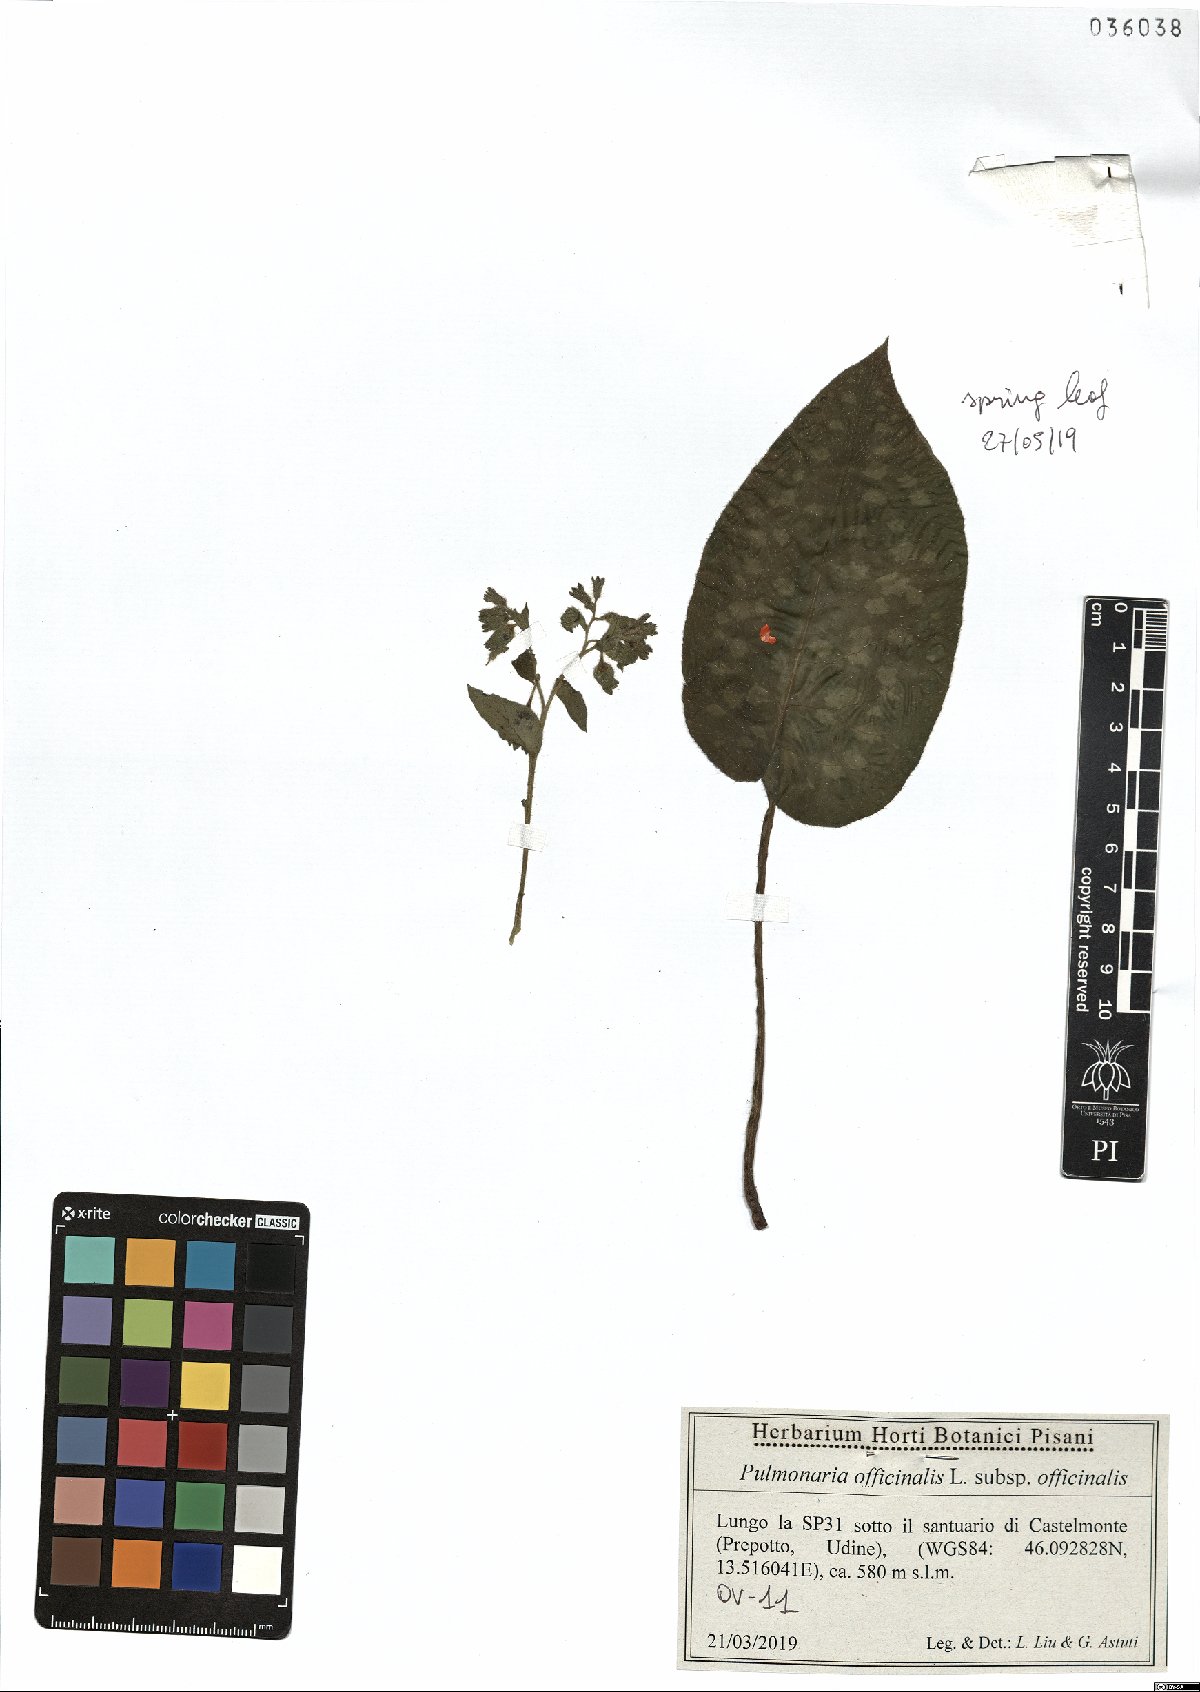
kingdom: Plantae
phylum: Tracheophyta
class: Magnoliopsida
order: Boraginales
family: Boraginaceae
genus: Pulmonaria
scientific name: Pulmonaria officinalis
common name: Lungwort
